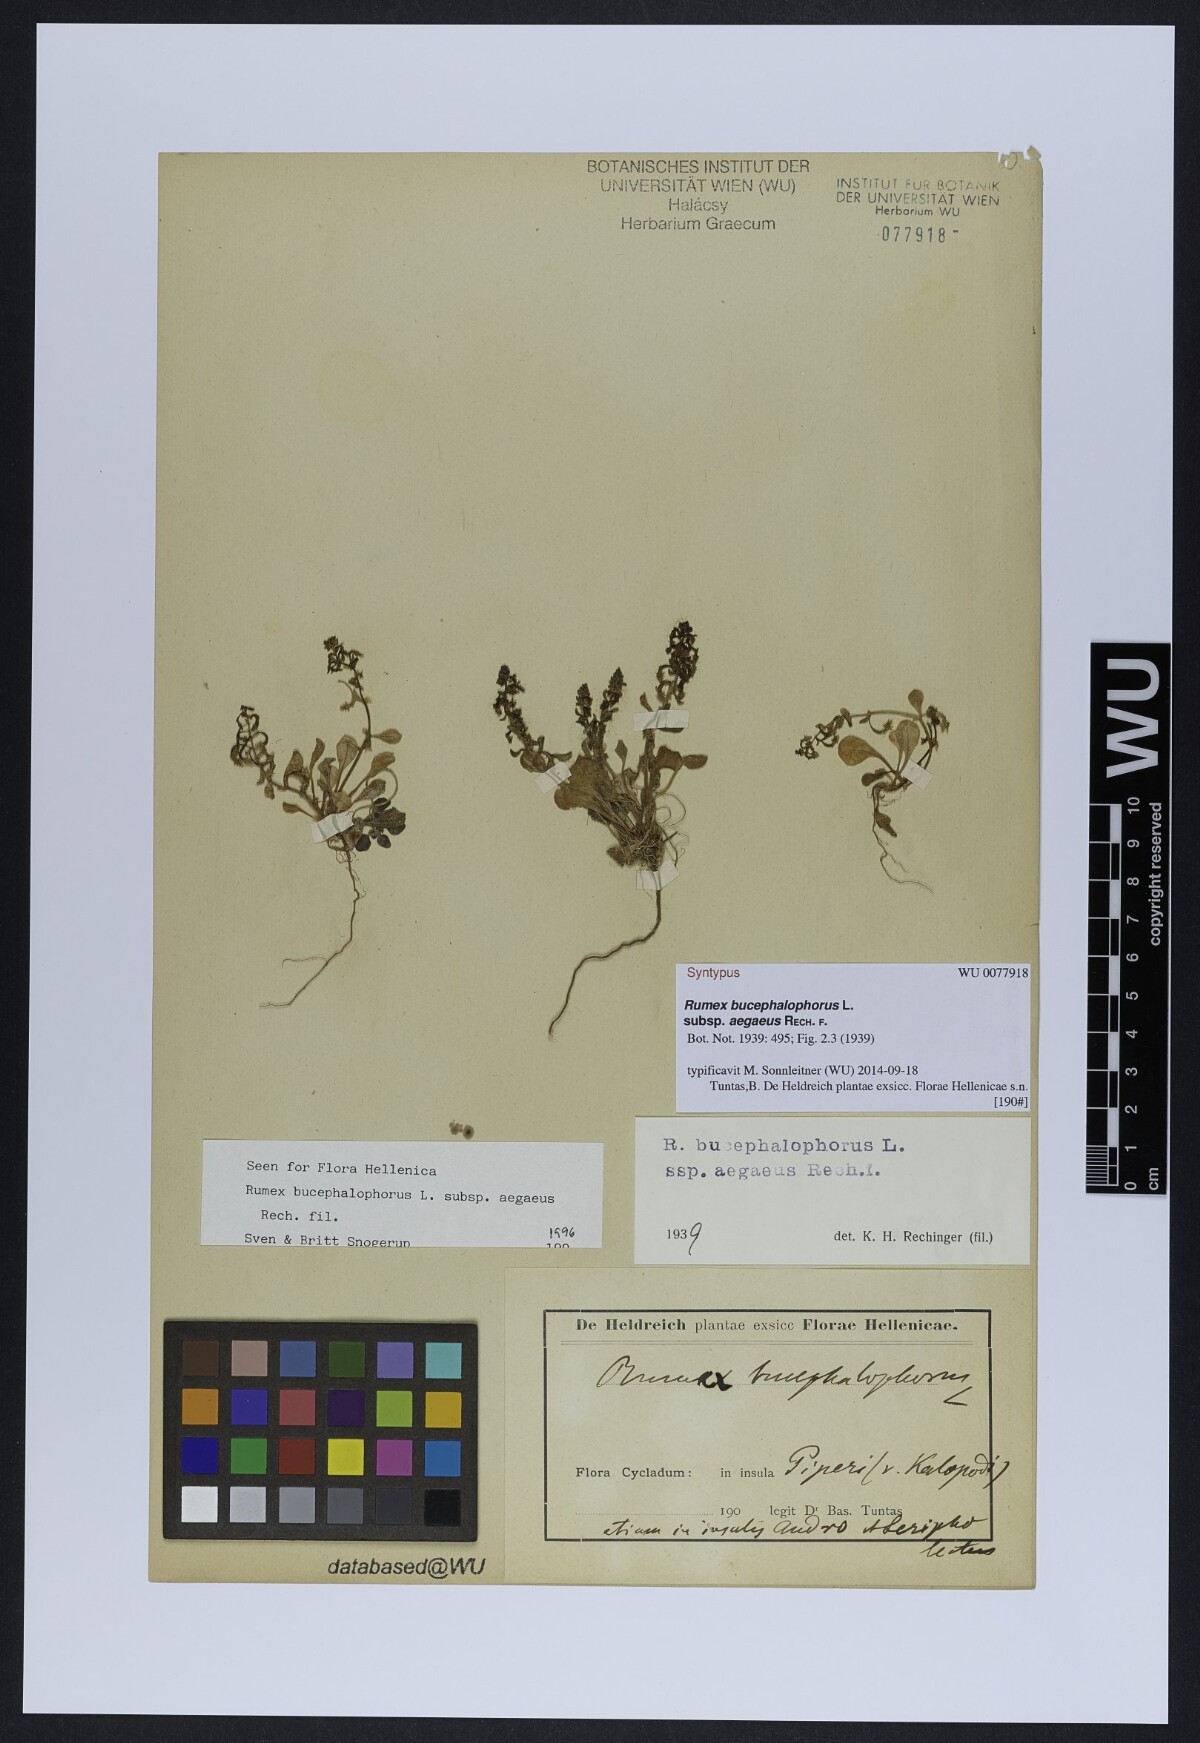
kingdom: Plantae
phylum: Tracheophyta
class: Magnoliopsida
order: Caryophyllales
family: Polygonaceae
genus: Rumex
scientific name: Rumex bucephalophorus
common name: Red dock
